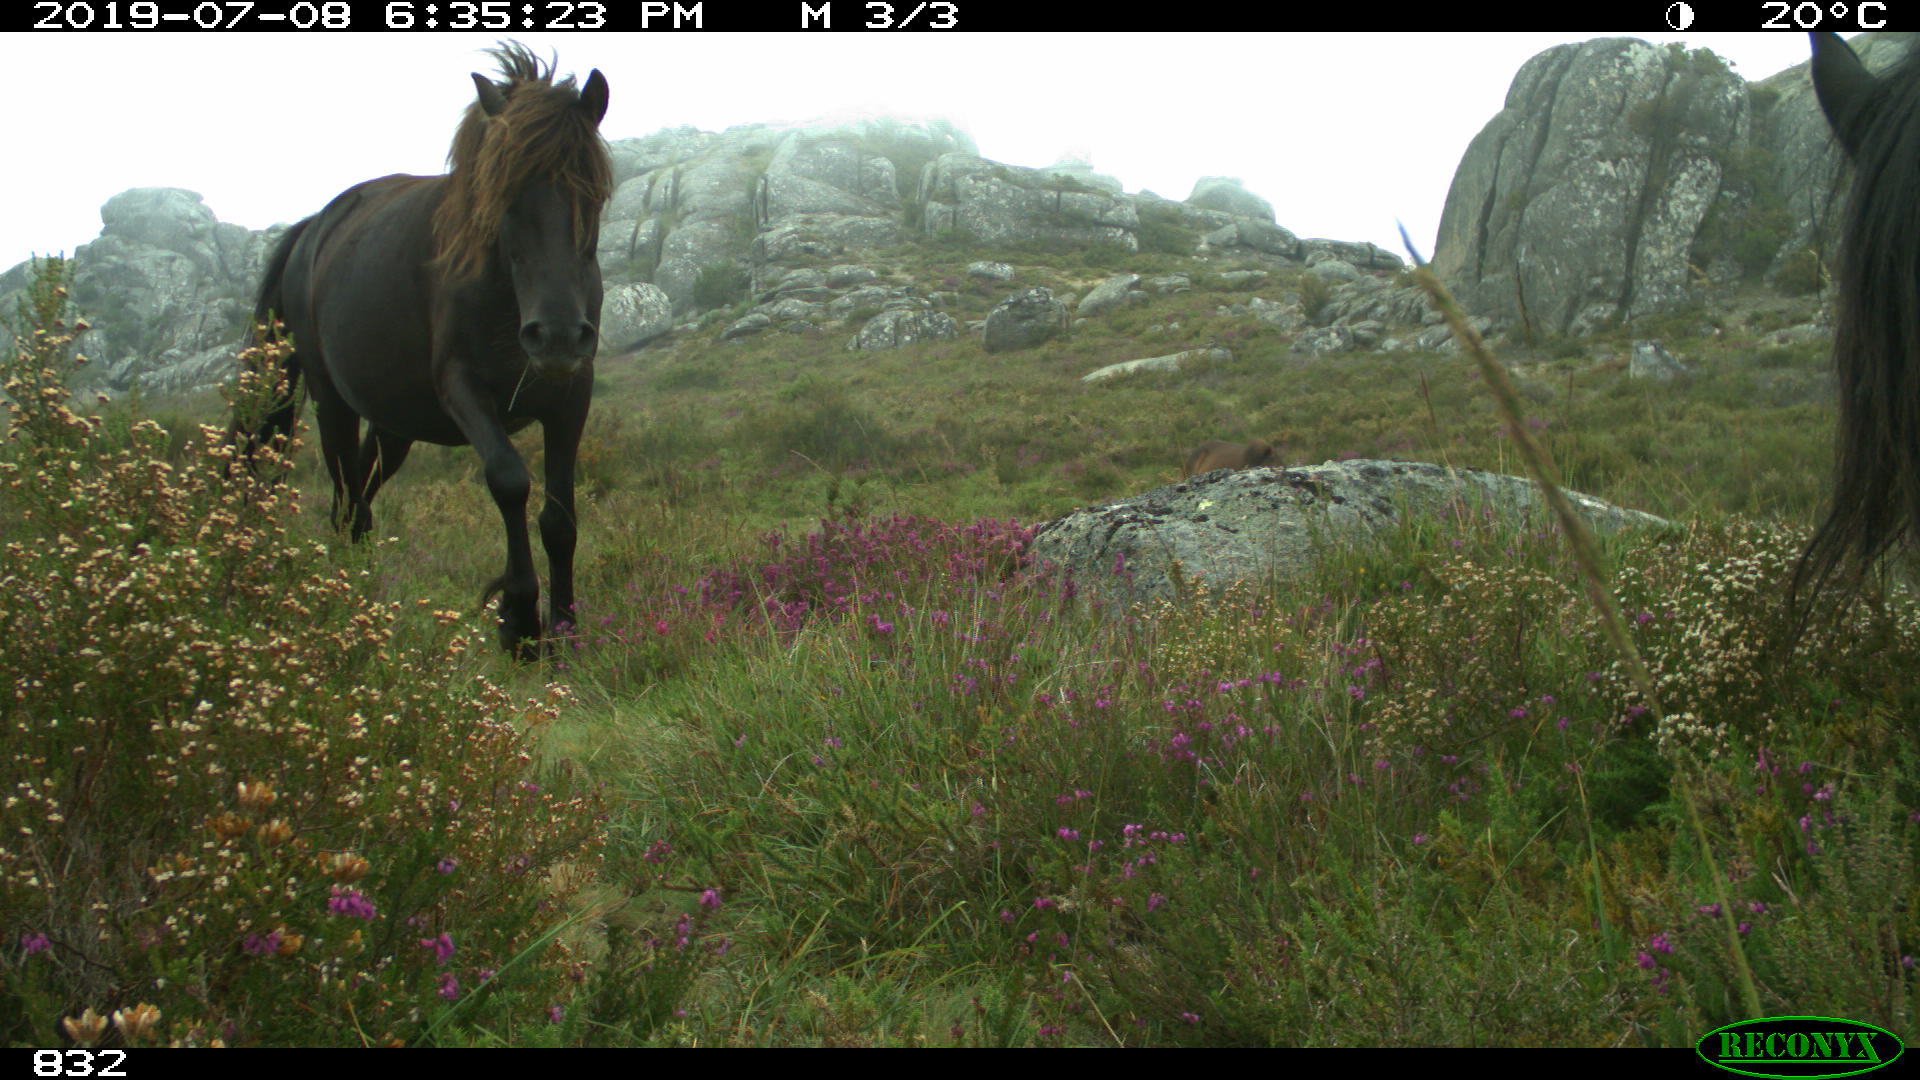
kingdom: Animalia
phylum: Chordata
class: Mammalia
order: Perissodactyla
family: Equidae
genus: Equus
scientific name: Equus caballus
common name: Horse
